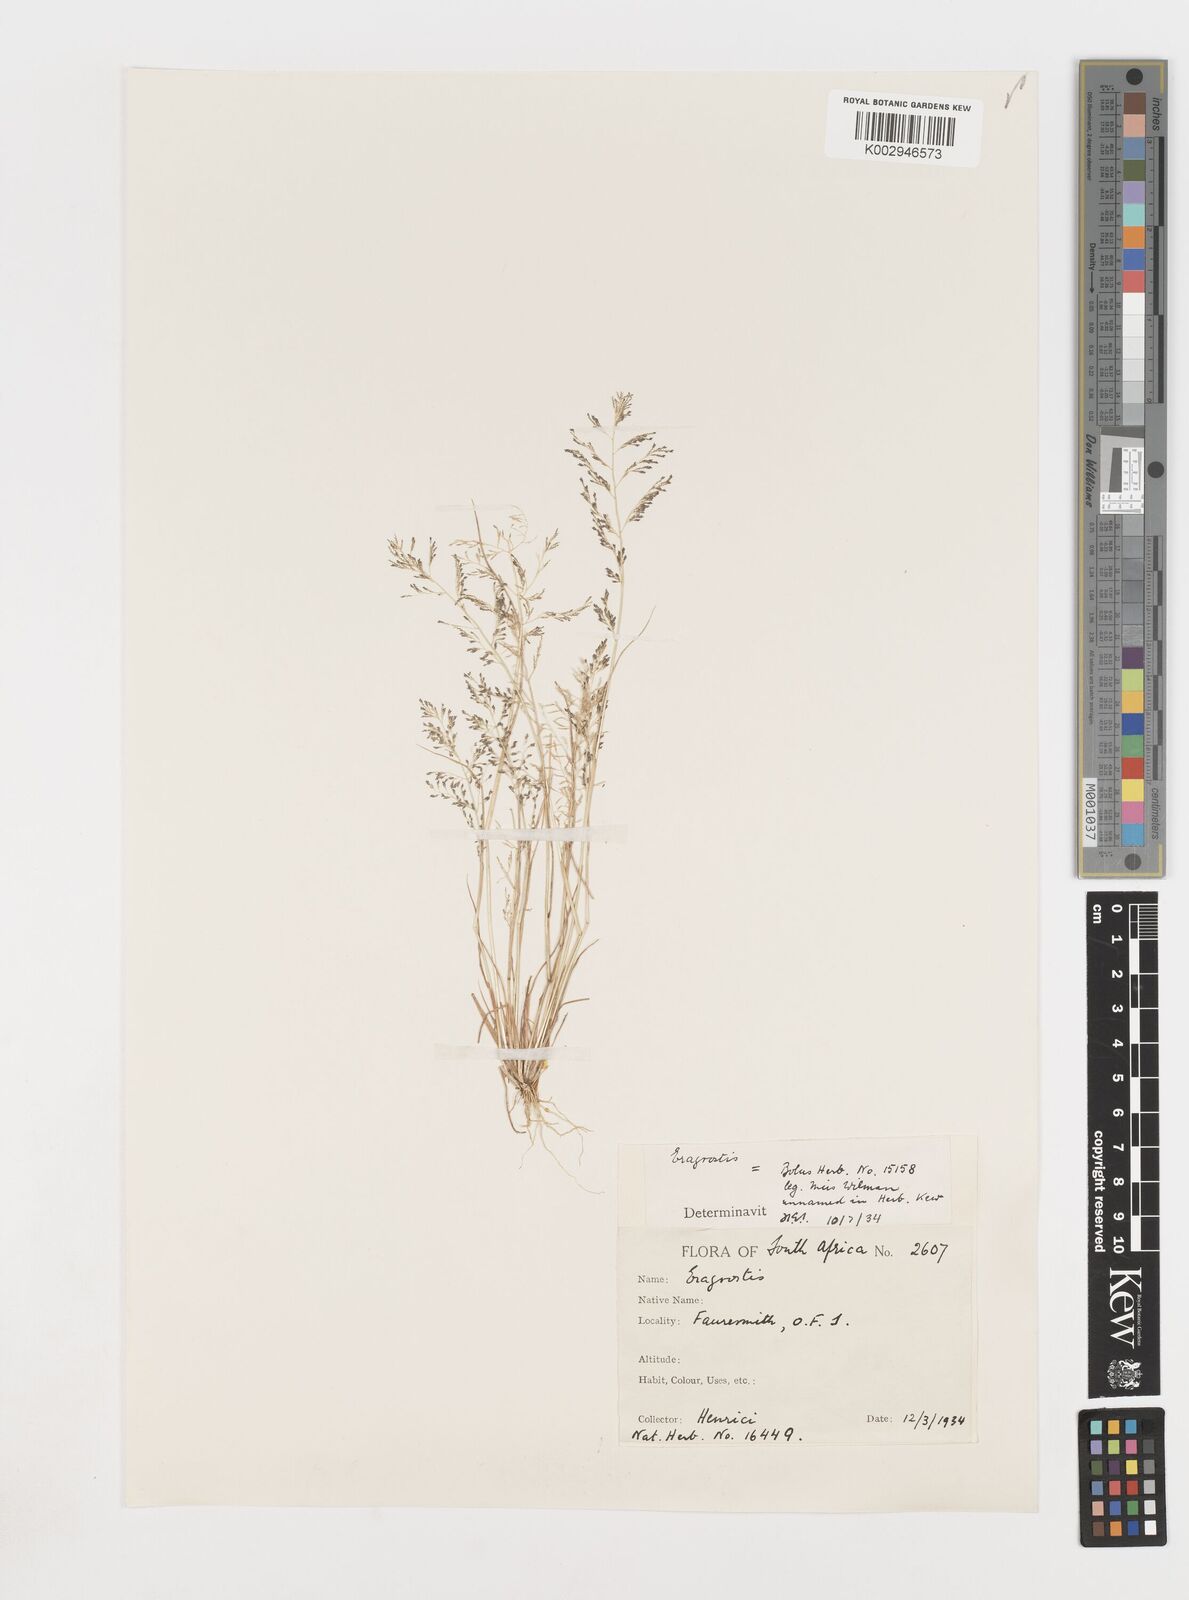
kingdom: Plantae
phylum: Tracheophyta
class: Liliopsida
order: Poales
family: Poaceae
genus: Eragrostis
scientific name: Eragrostis homomalla
